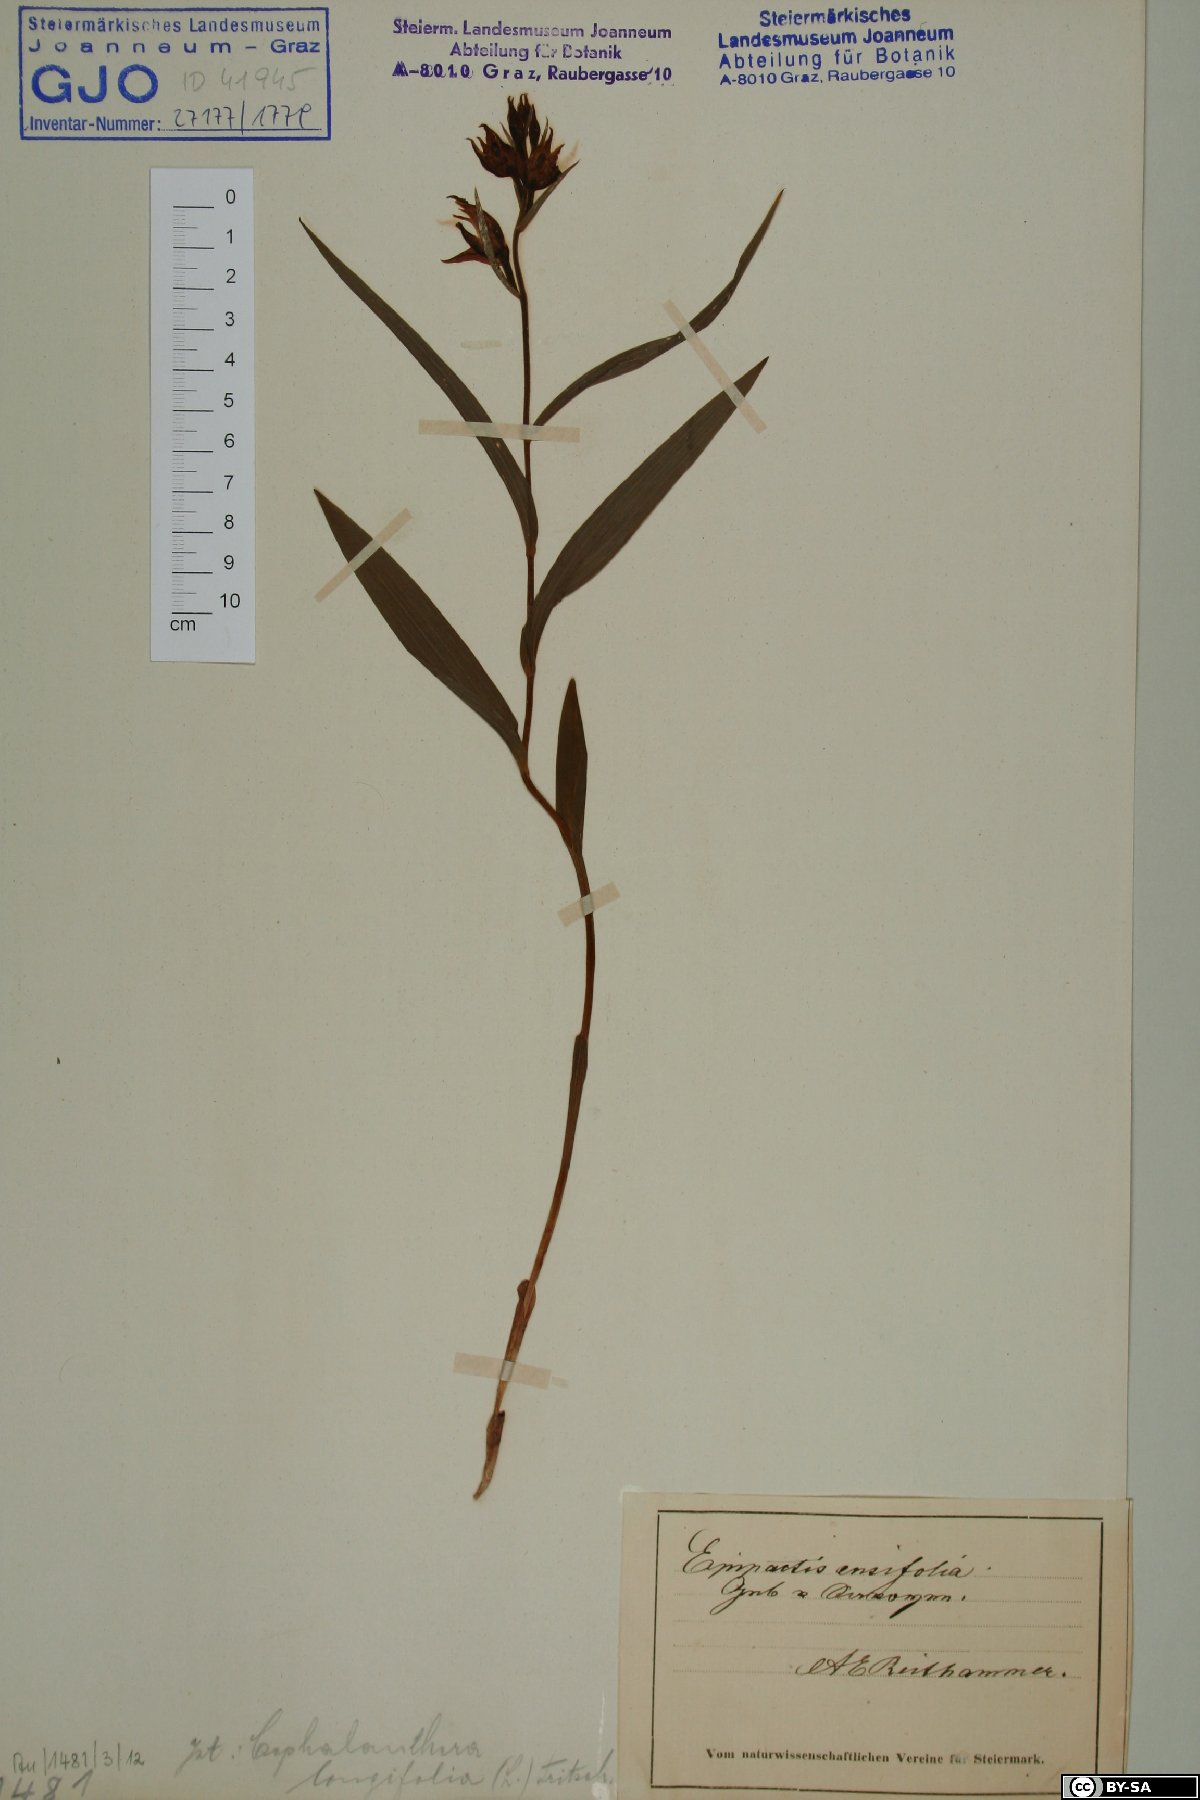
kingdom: Plantae
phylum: Tracheophyta
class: Liliopsida
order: Asparagales
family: Orchidaceae
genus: Cephalanthera
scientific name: Cephalanthera longifolia
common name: Narrow-leaved helleborine
